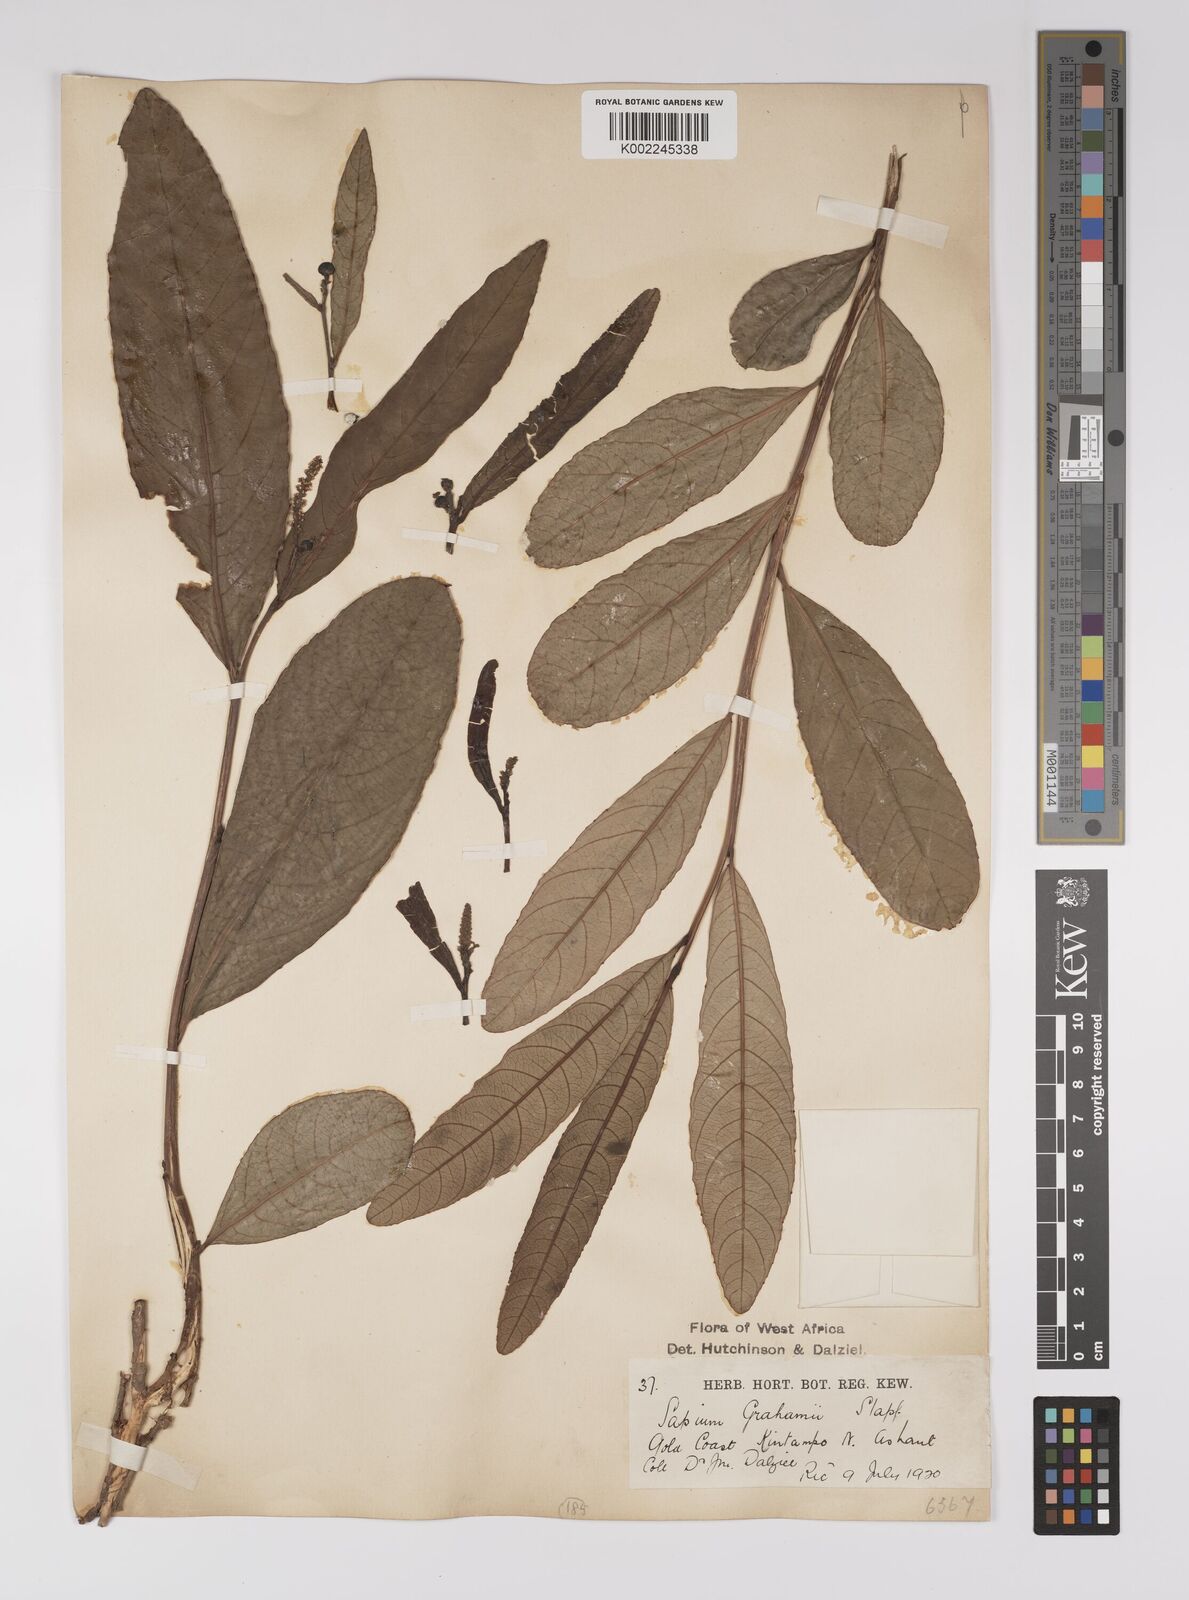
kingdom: Plantae
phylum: Tracheophyta
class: Magnoliopsida
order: Malpighiales
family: Euphorbiaceae
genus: Excoecaria
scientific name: Excoecaria grahamii
